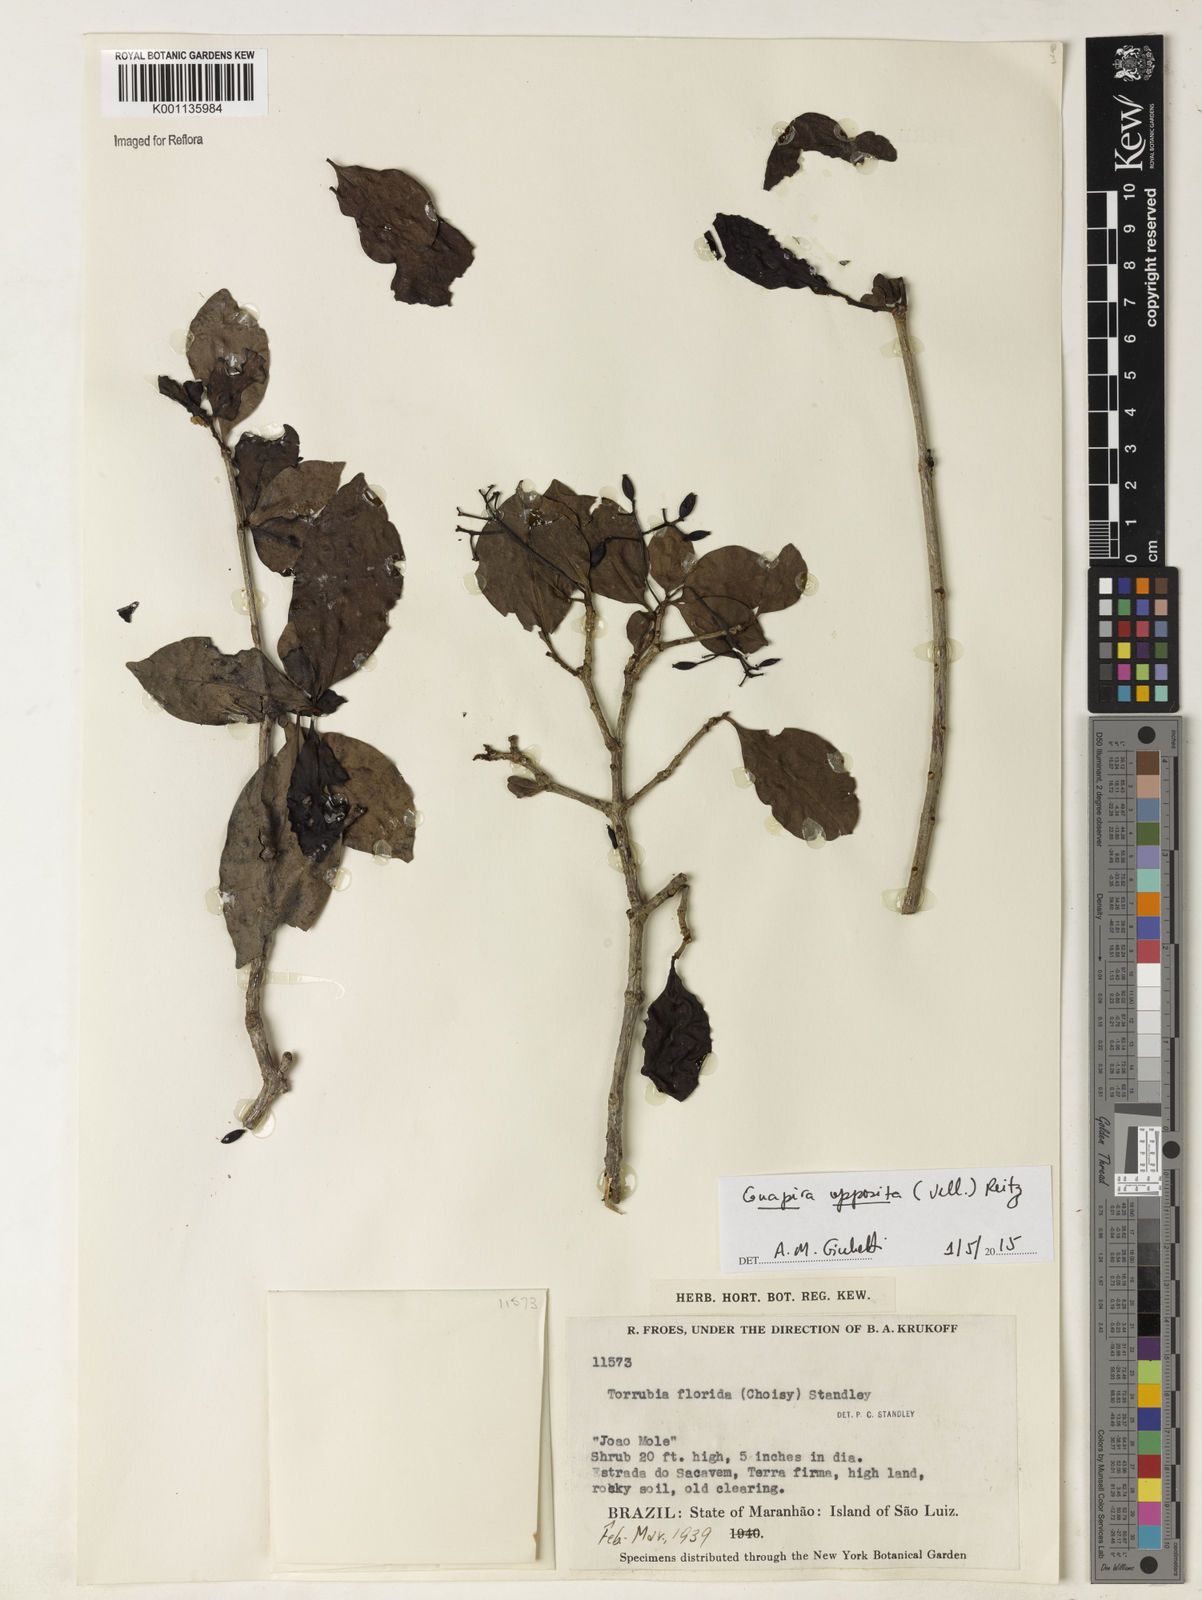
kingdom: Plantae
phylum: Tracheophyta
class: Magnoliopsida
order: Caryophyllales
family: Nyctaginaceae
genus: Guapira
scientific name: Guapira opposita
